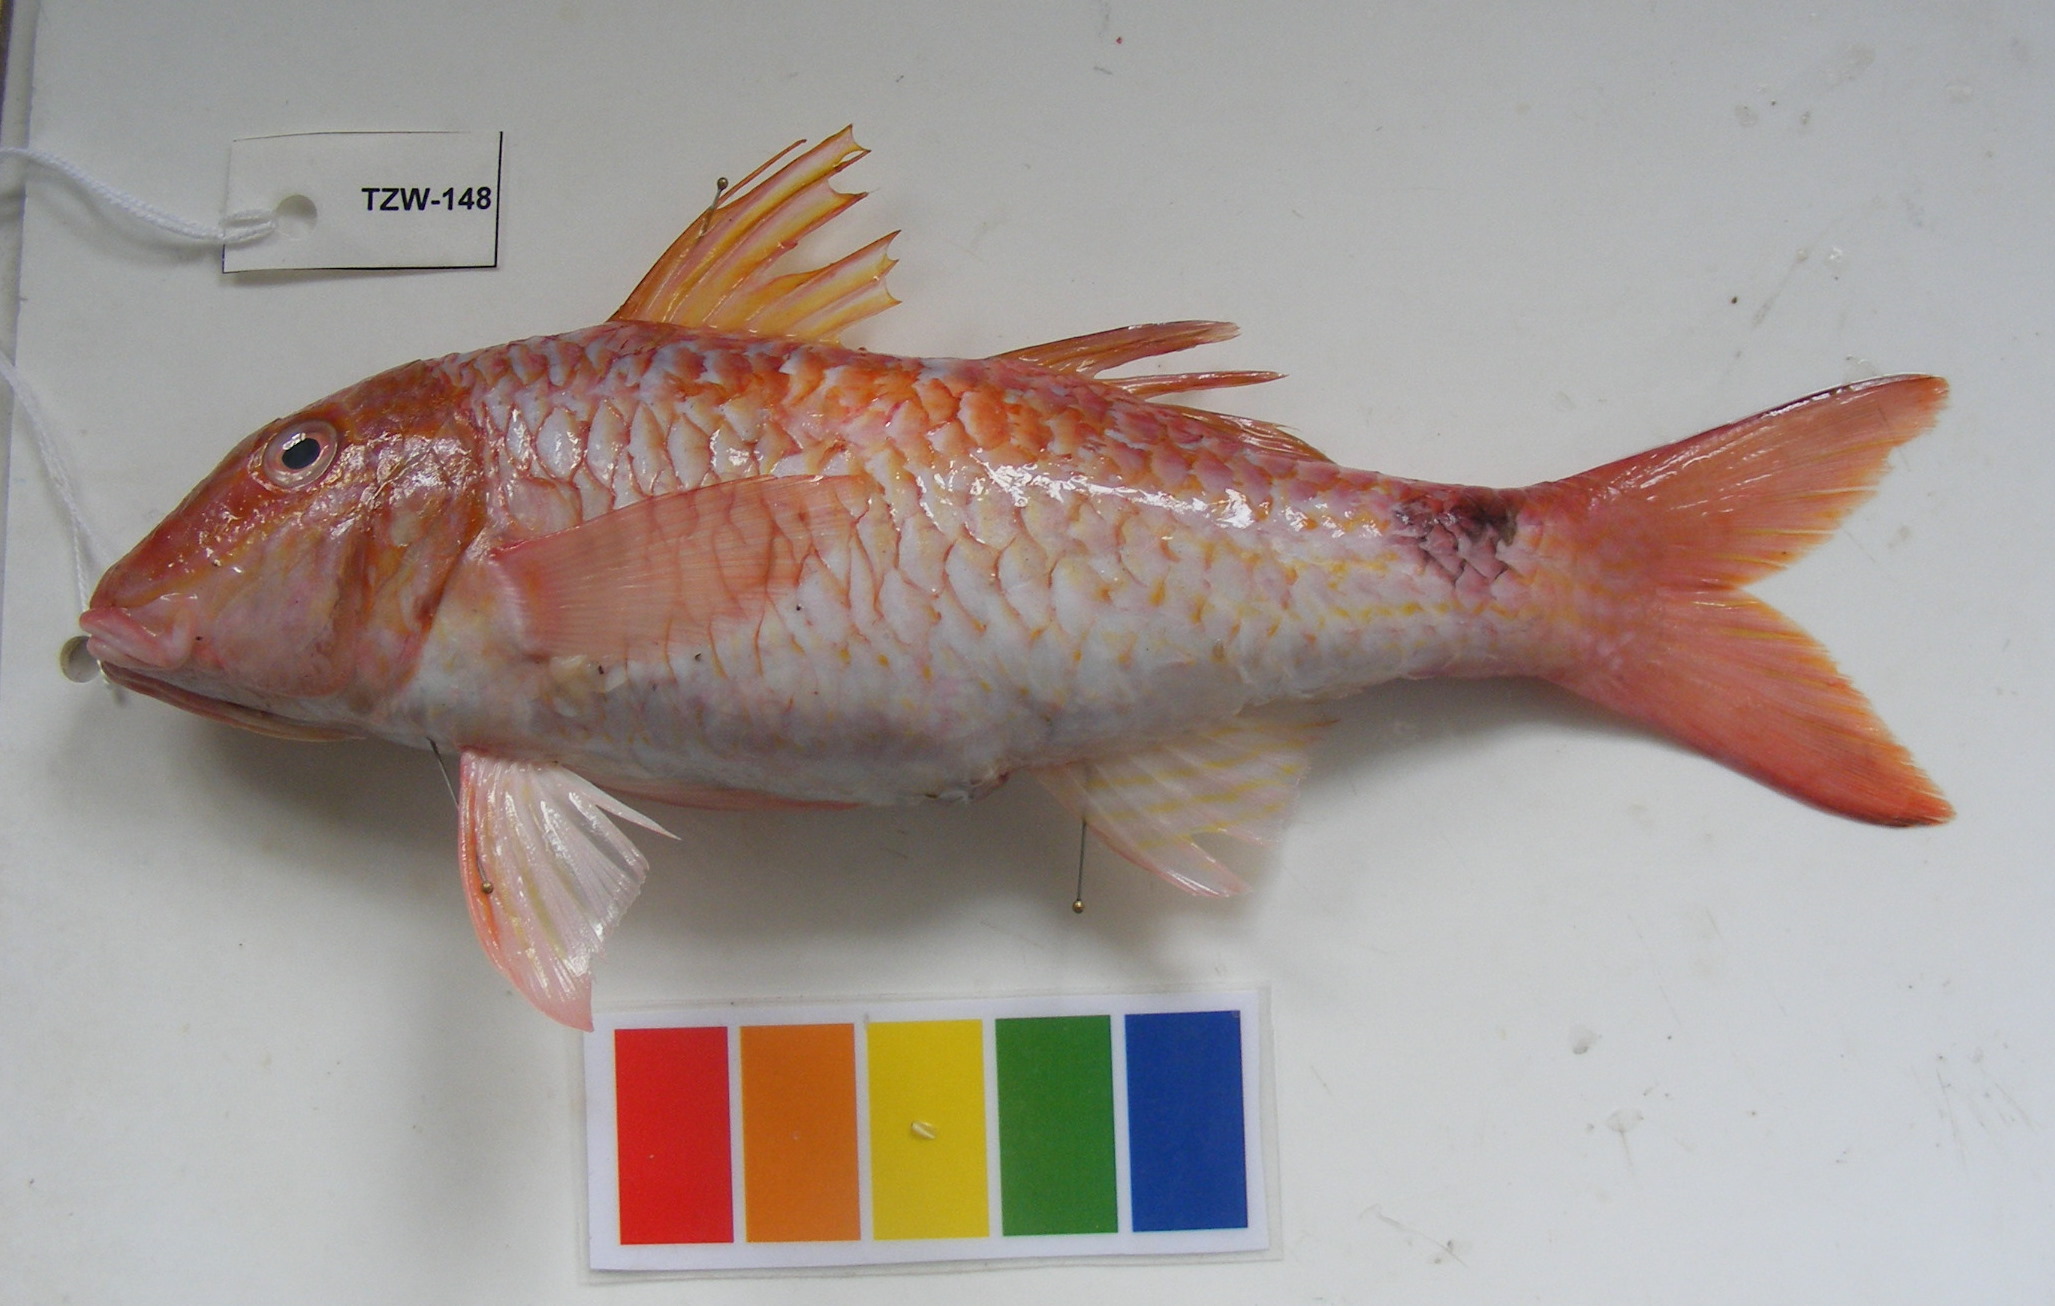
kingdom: Animalia
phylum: Chordata
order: Perciformes
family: Mullidae
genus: Parupeneus
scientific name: Parupeneus indicus
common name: Indian goatfish
